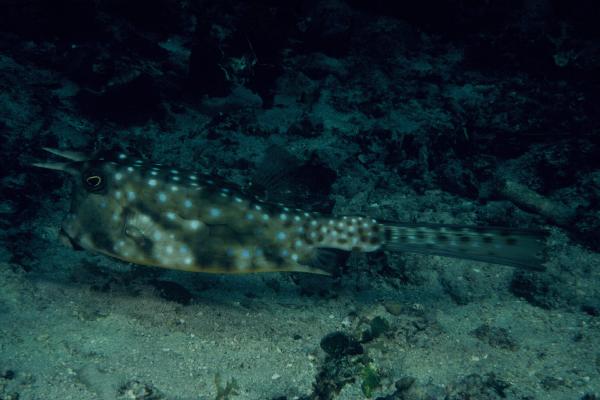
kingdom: Animalia
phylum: Chordata
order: Tetraodontiformes
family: Ostraciidae
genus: Lactoria
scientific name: Lactoria cornuta
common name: Longhorn cowfish
